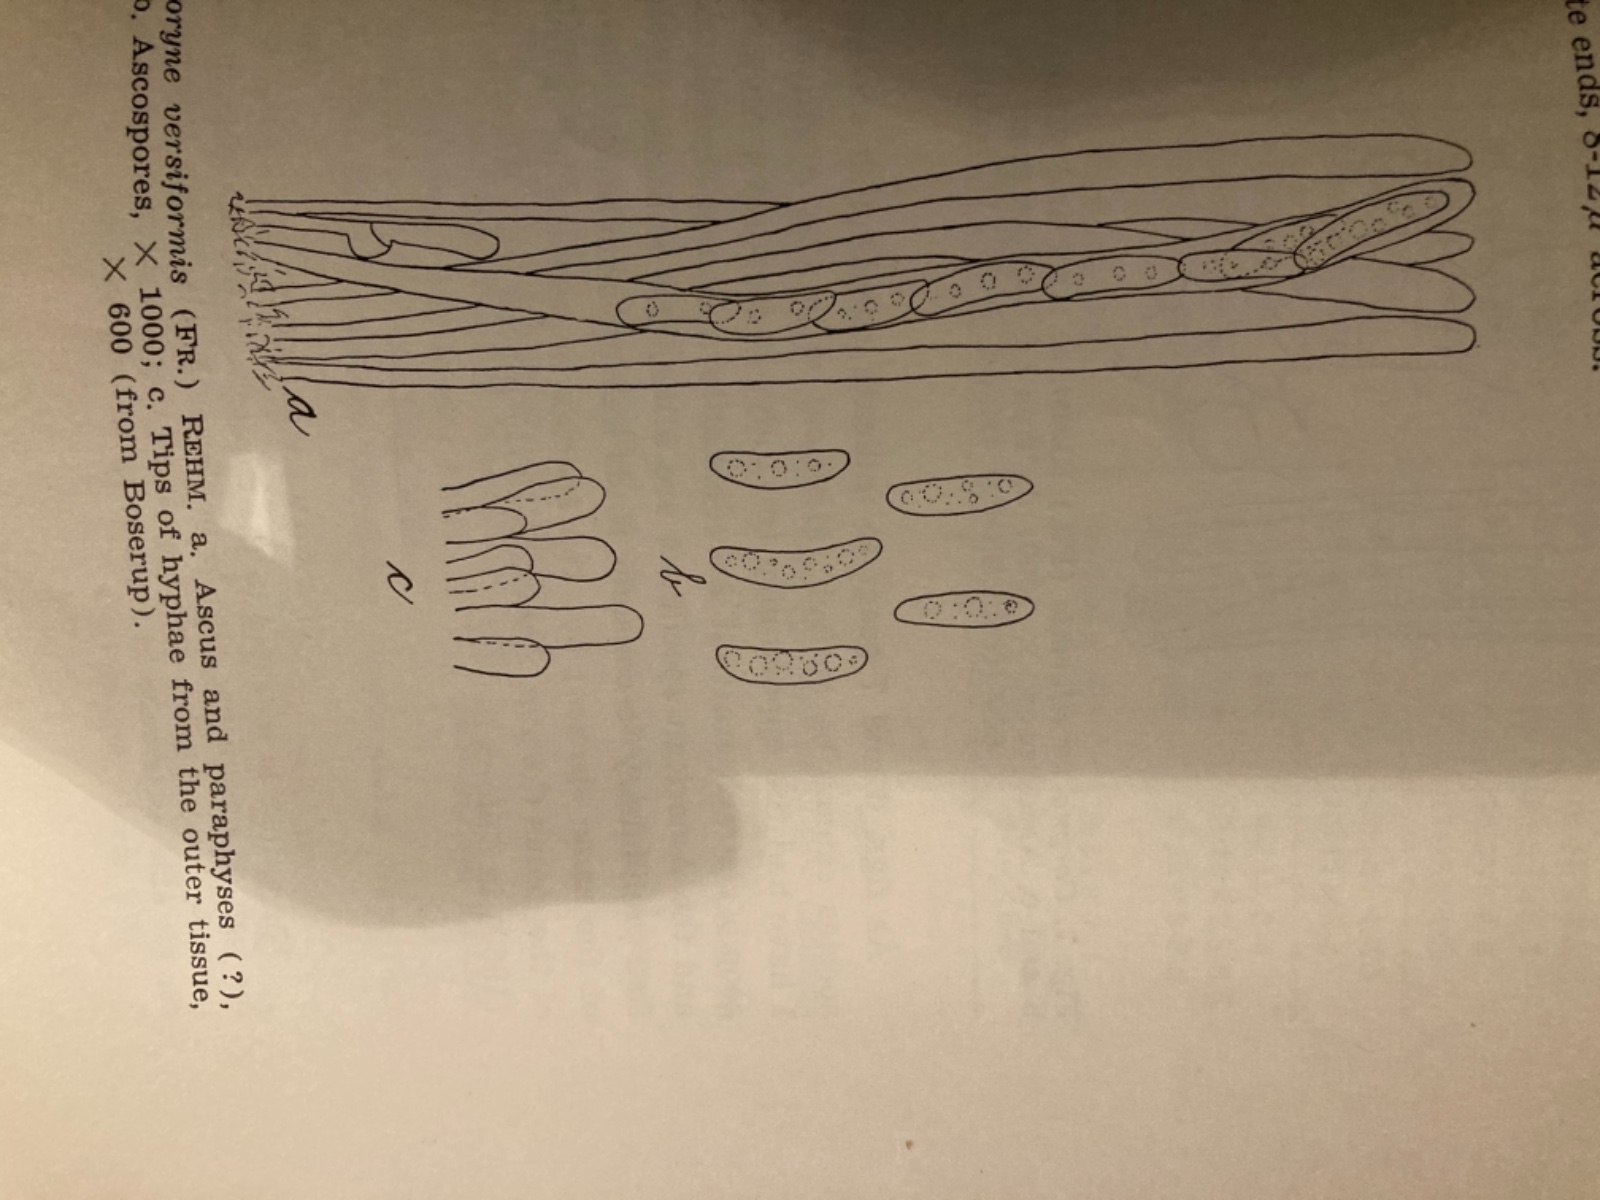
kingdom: Fungi
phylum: Ascomycota
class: Leotiomycetes
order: Helotiales
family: Cenangiaceae
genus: Chlorencoelia
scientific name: Chlorencoelia versiformis
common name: gullig grønskive
